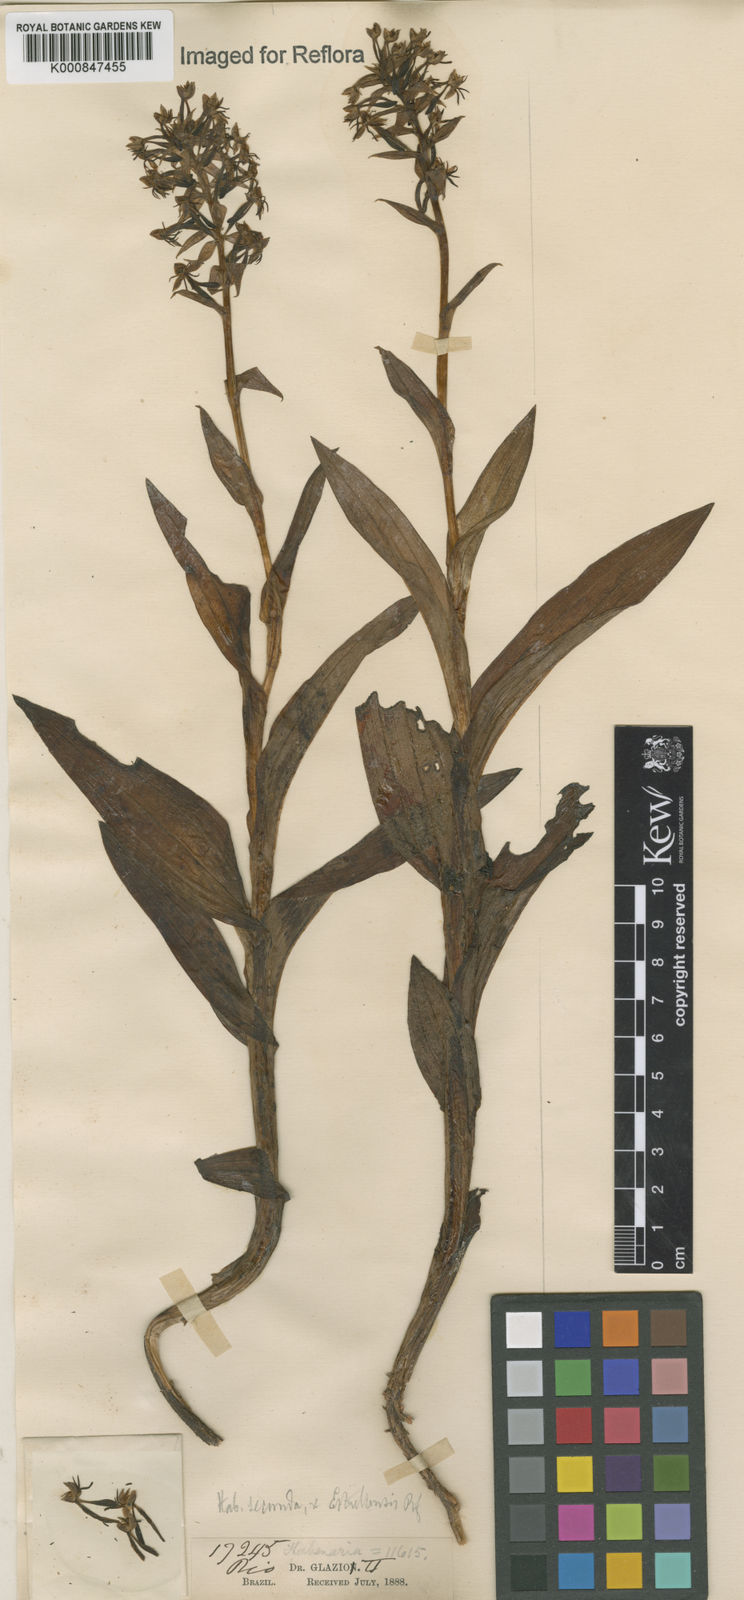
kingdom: Plantae
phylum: Tracheophyta
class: Liliopsida
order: Asparagales
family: Orchidaceae
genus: Habenaria
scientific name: Habenaria secunda
